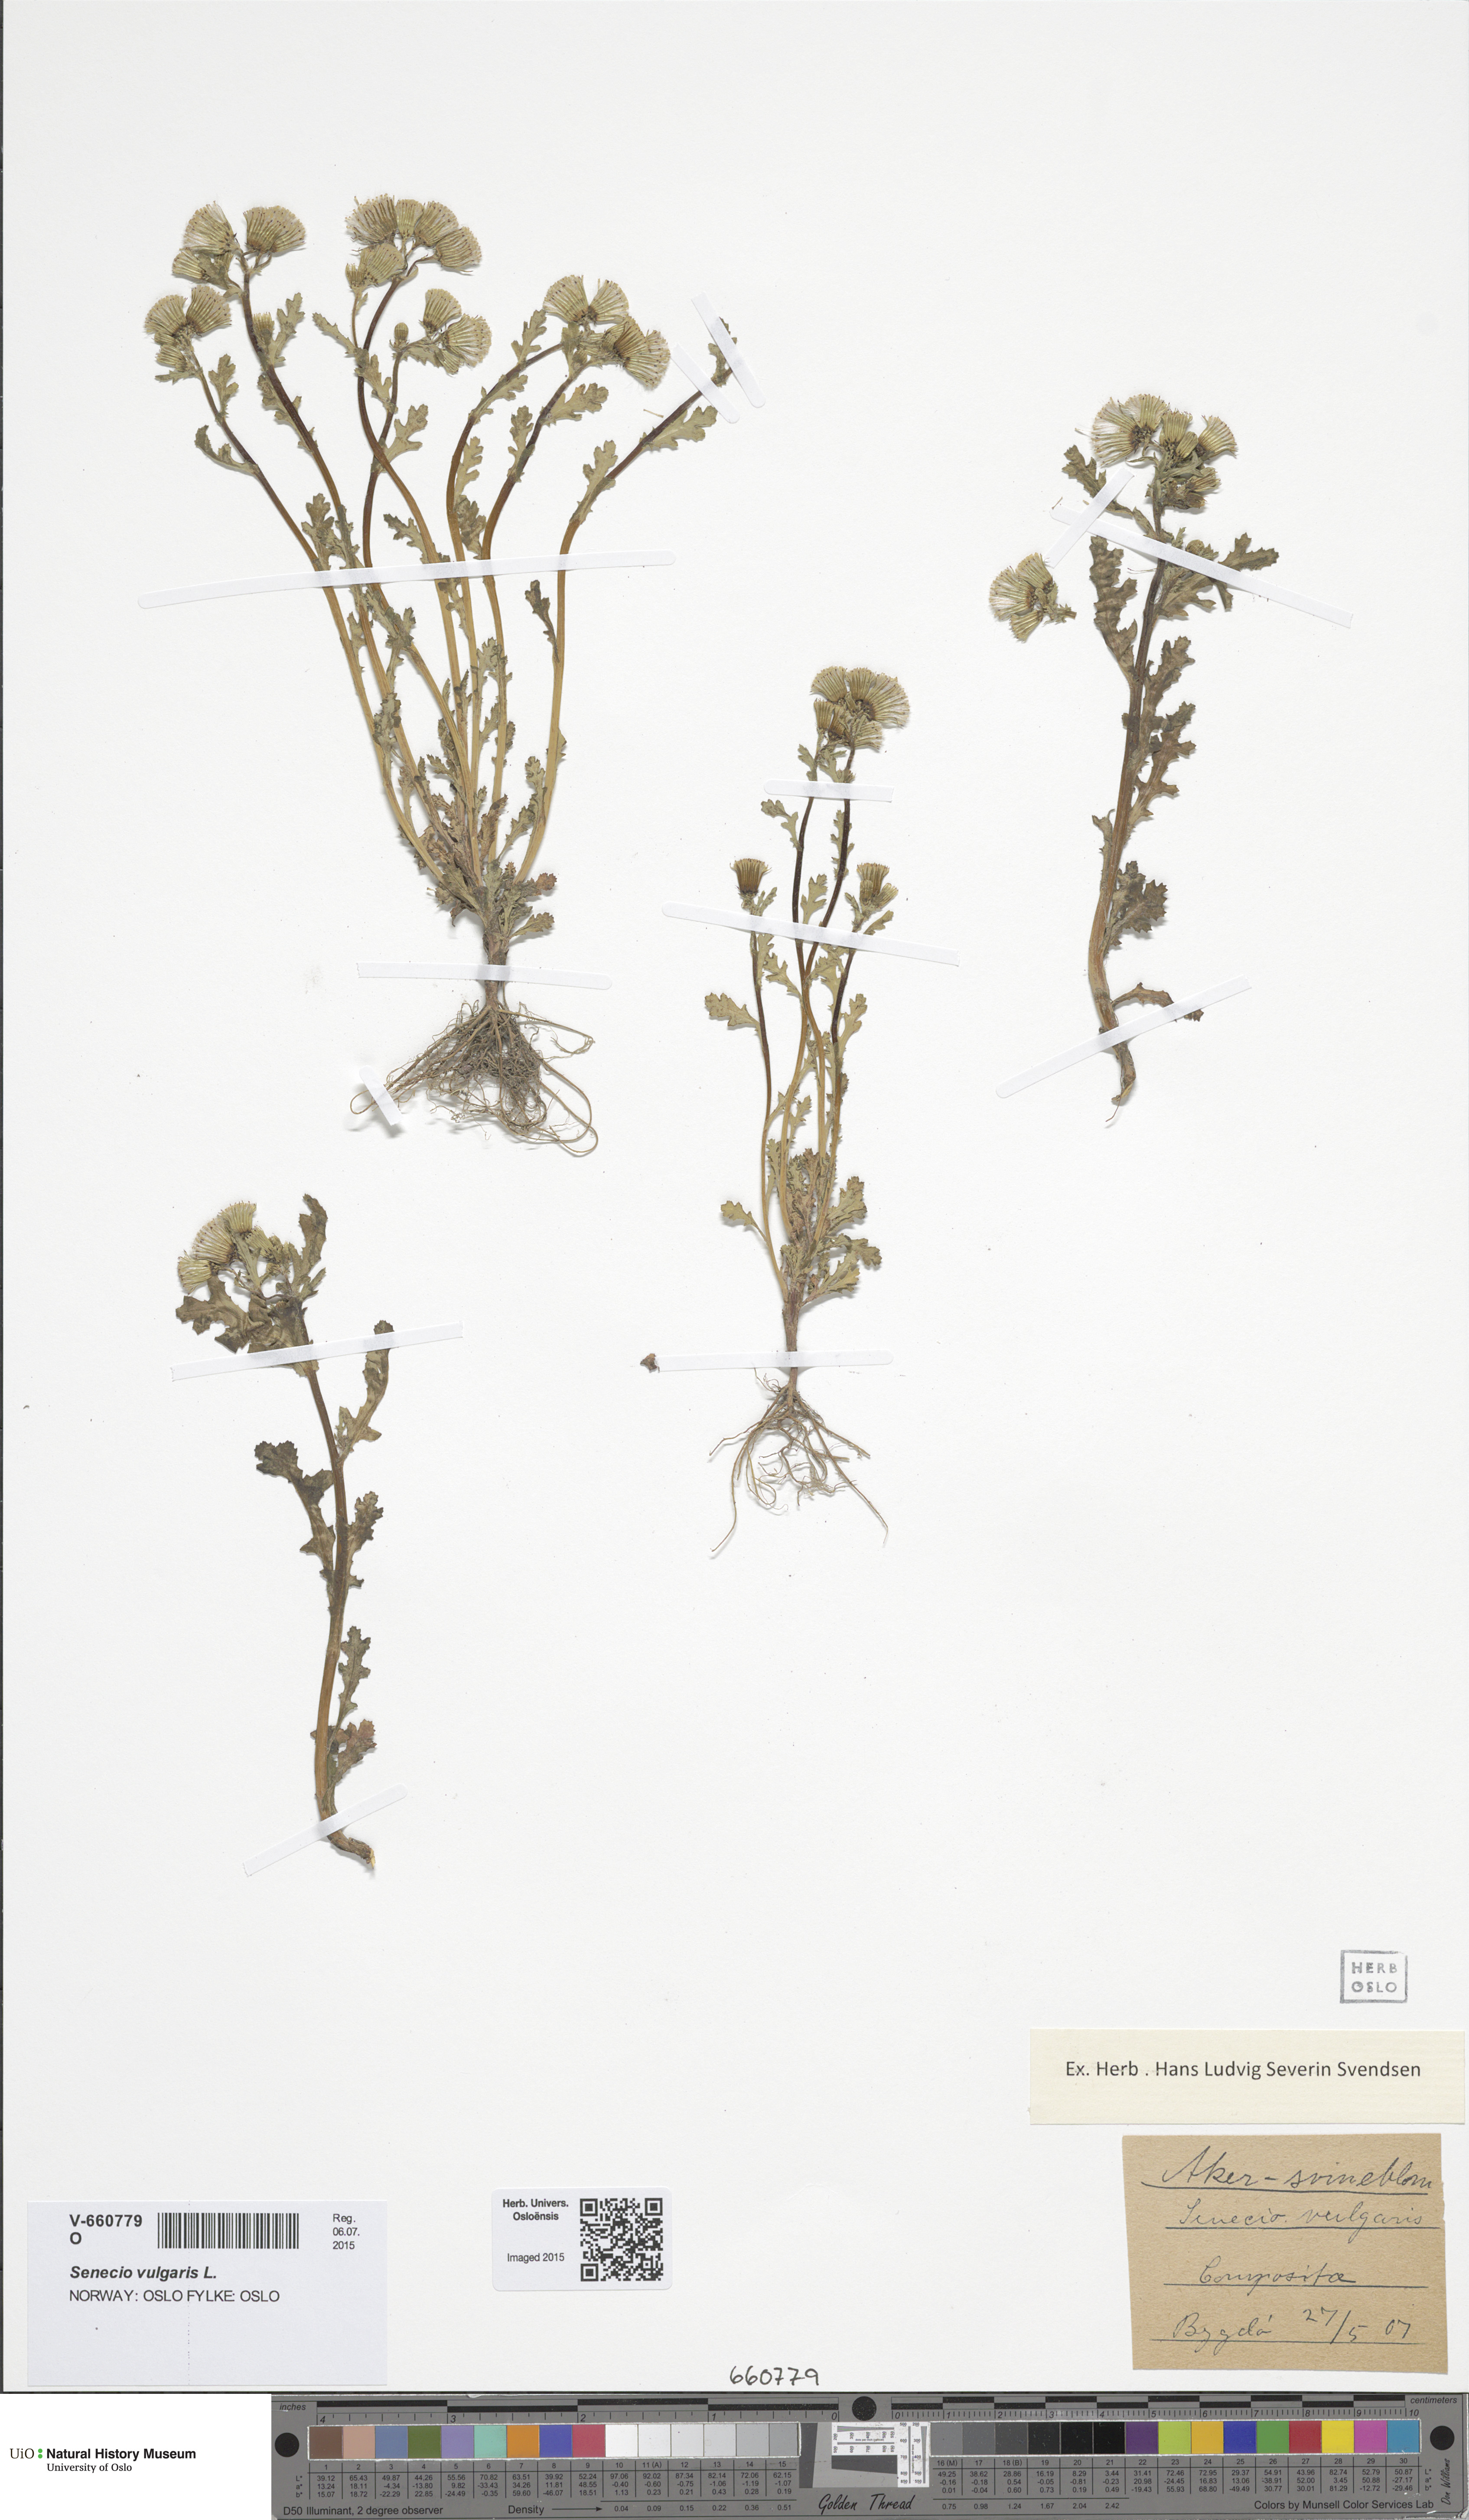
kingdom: Plantae
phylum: Tracheophyta
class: Magnoliopsida
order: Asterales
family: Asteraceae
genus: Senecio
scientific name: Senecio vulgaris
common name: Old-man-in-the-spring
